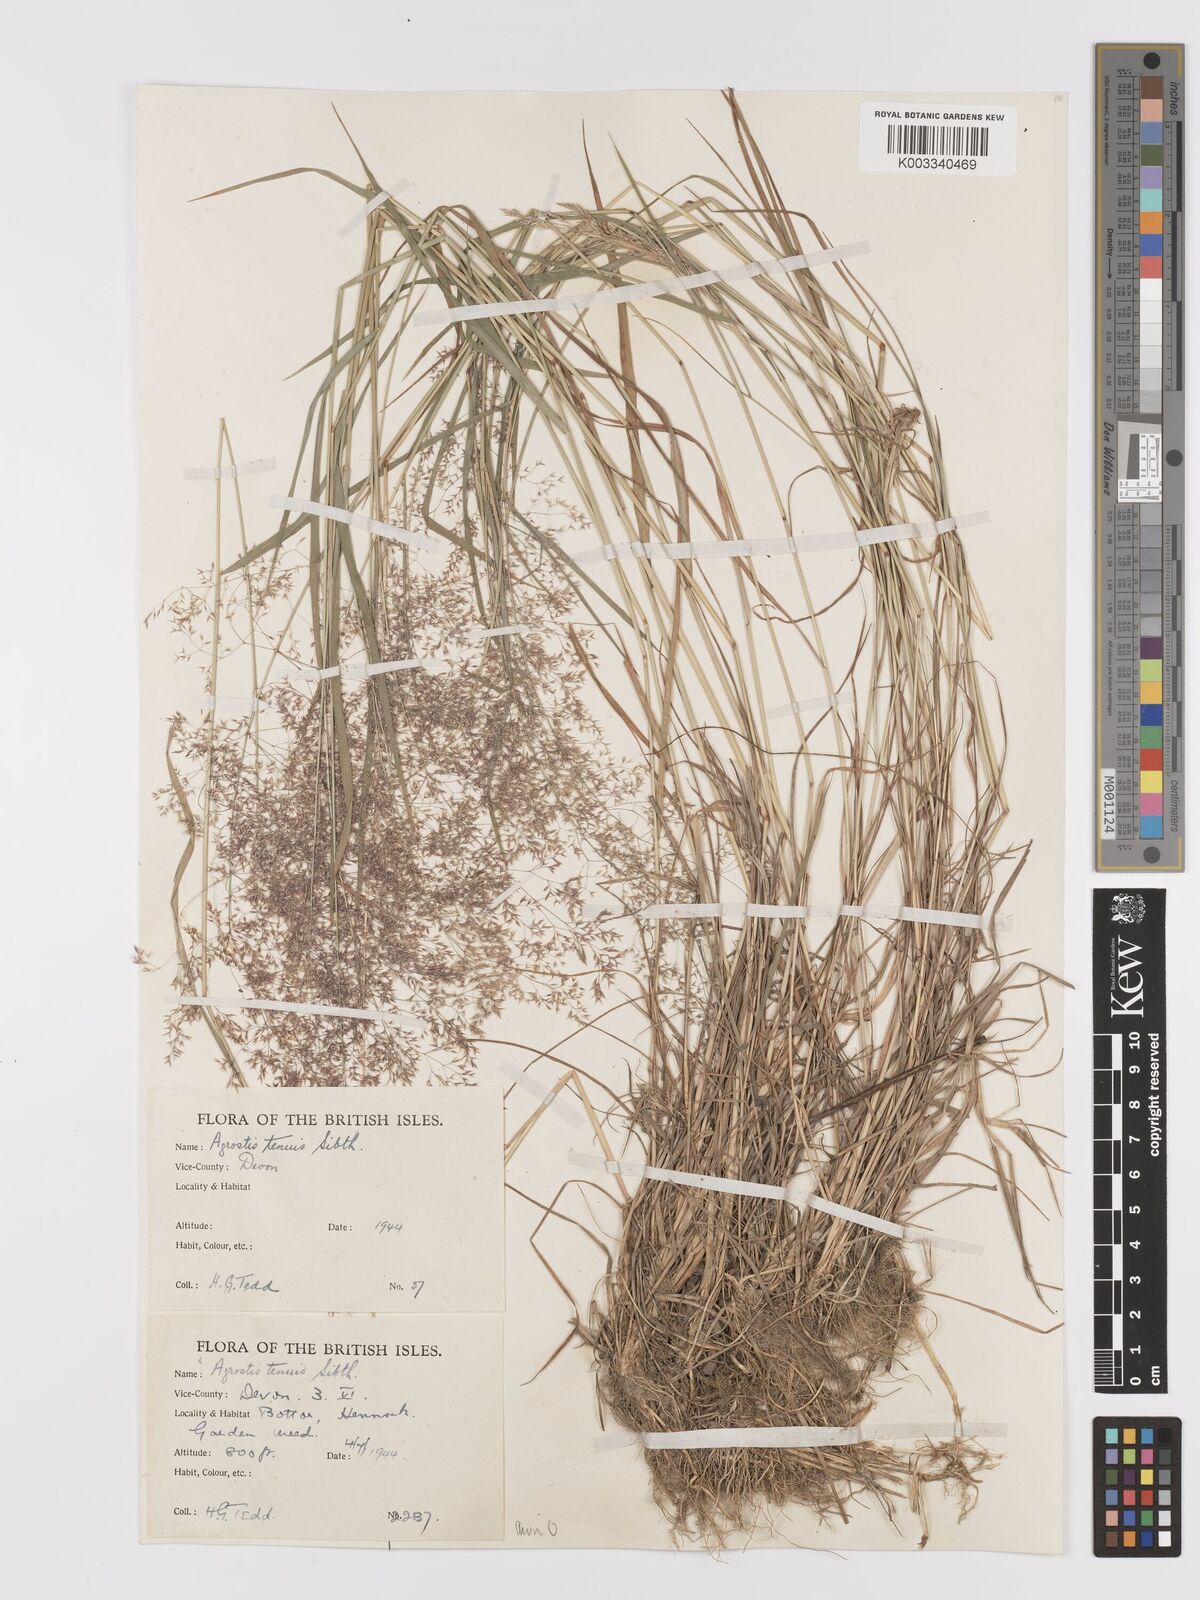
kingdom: Plantae
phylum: Tracheophyta
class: Liliopsida
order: Poales
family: Poaceae
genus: Agrostis
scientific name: Agrostis capillaris
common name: Colonial bentgrass
